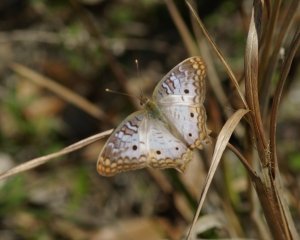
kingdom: Animalia
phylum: Arthropoda
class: Insecta
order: Lepidoptera
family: Nymphalidae
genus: Anartia
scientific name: Anartia jatrophae
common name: White Peacock
